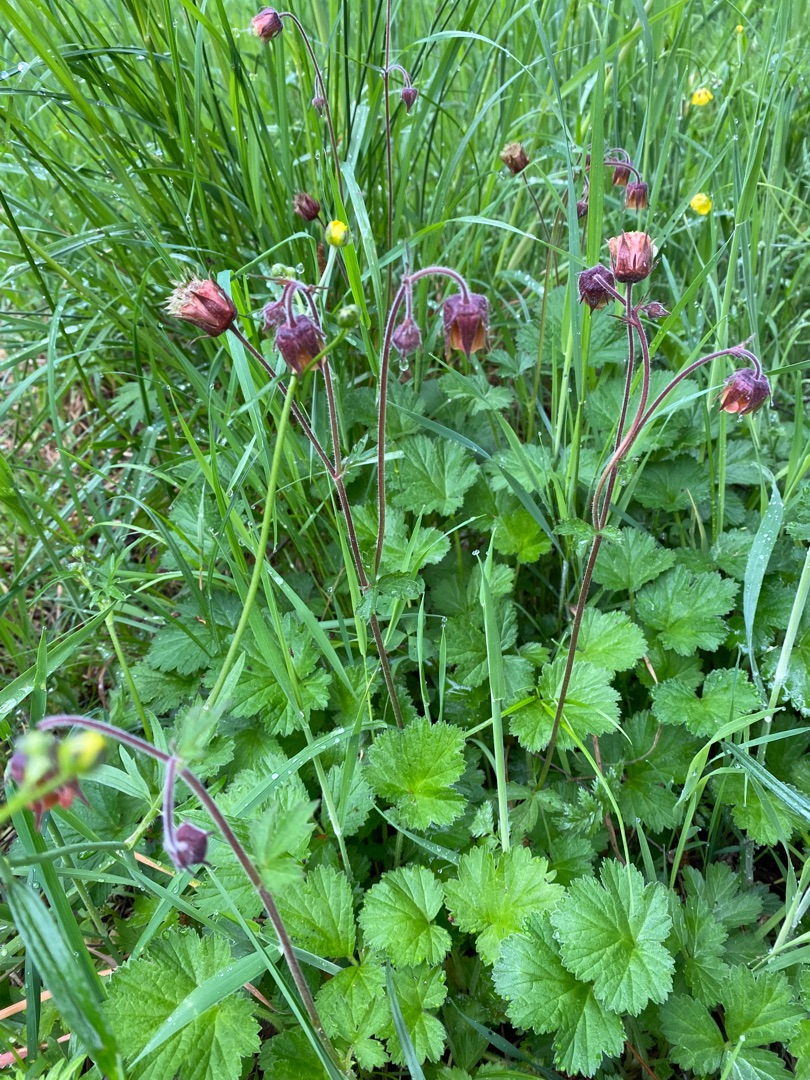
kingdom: Plantae
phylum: Tracheophyta
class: Magnoliopsida
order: Rosales
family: Rosaceae
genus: Geum
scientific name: Geum rivale
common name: Eng-nellikerod
